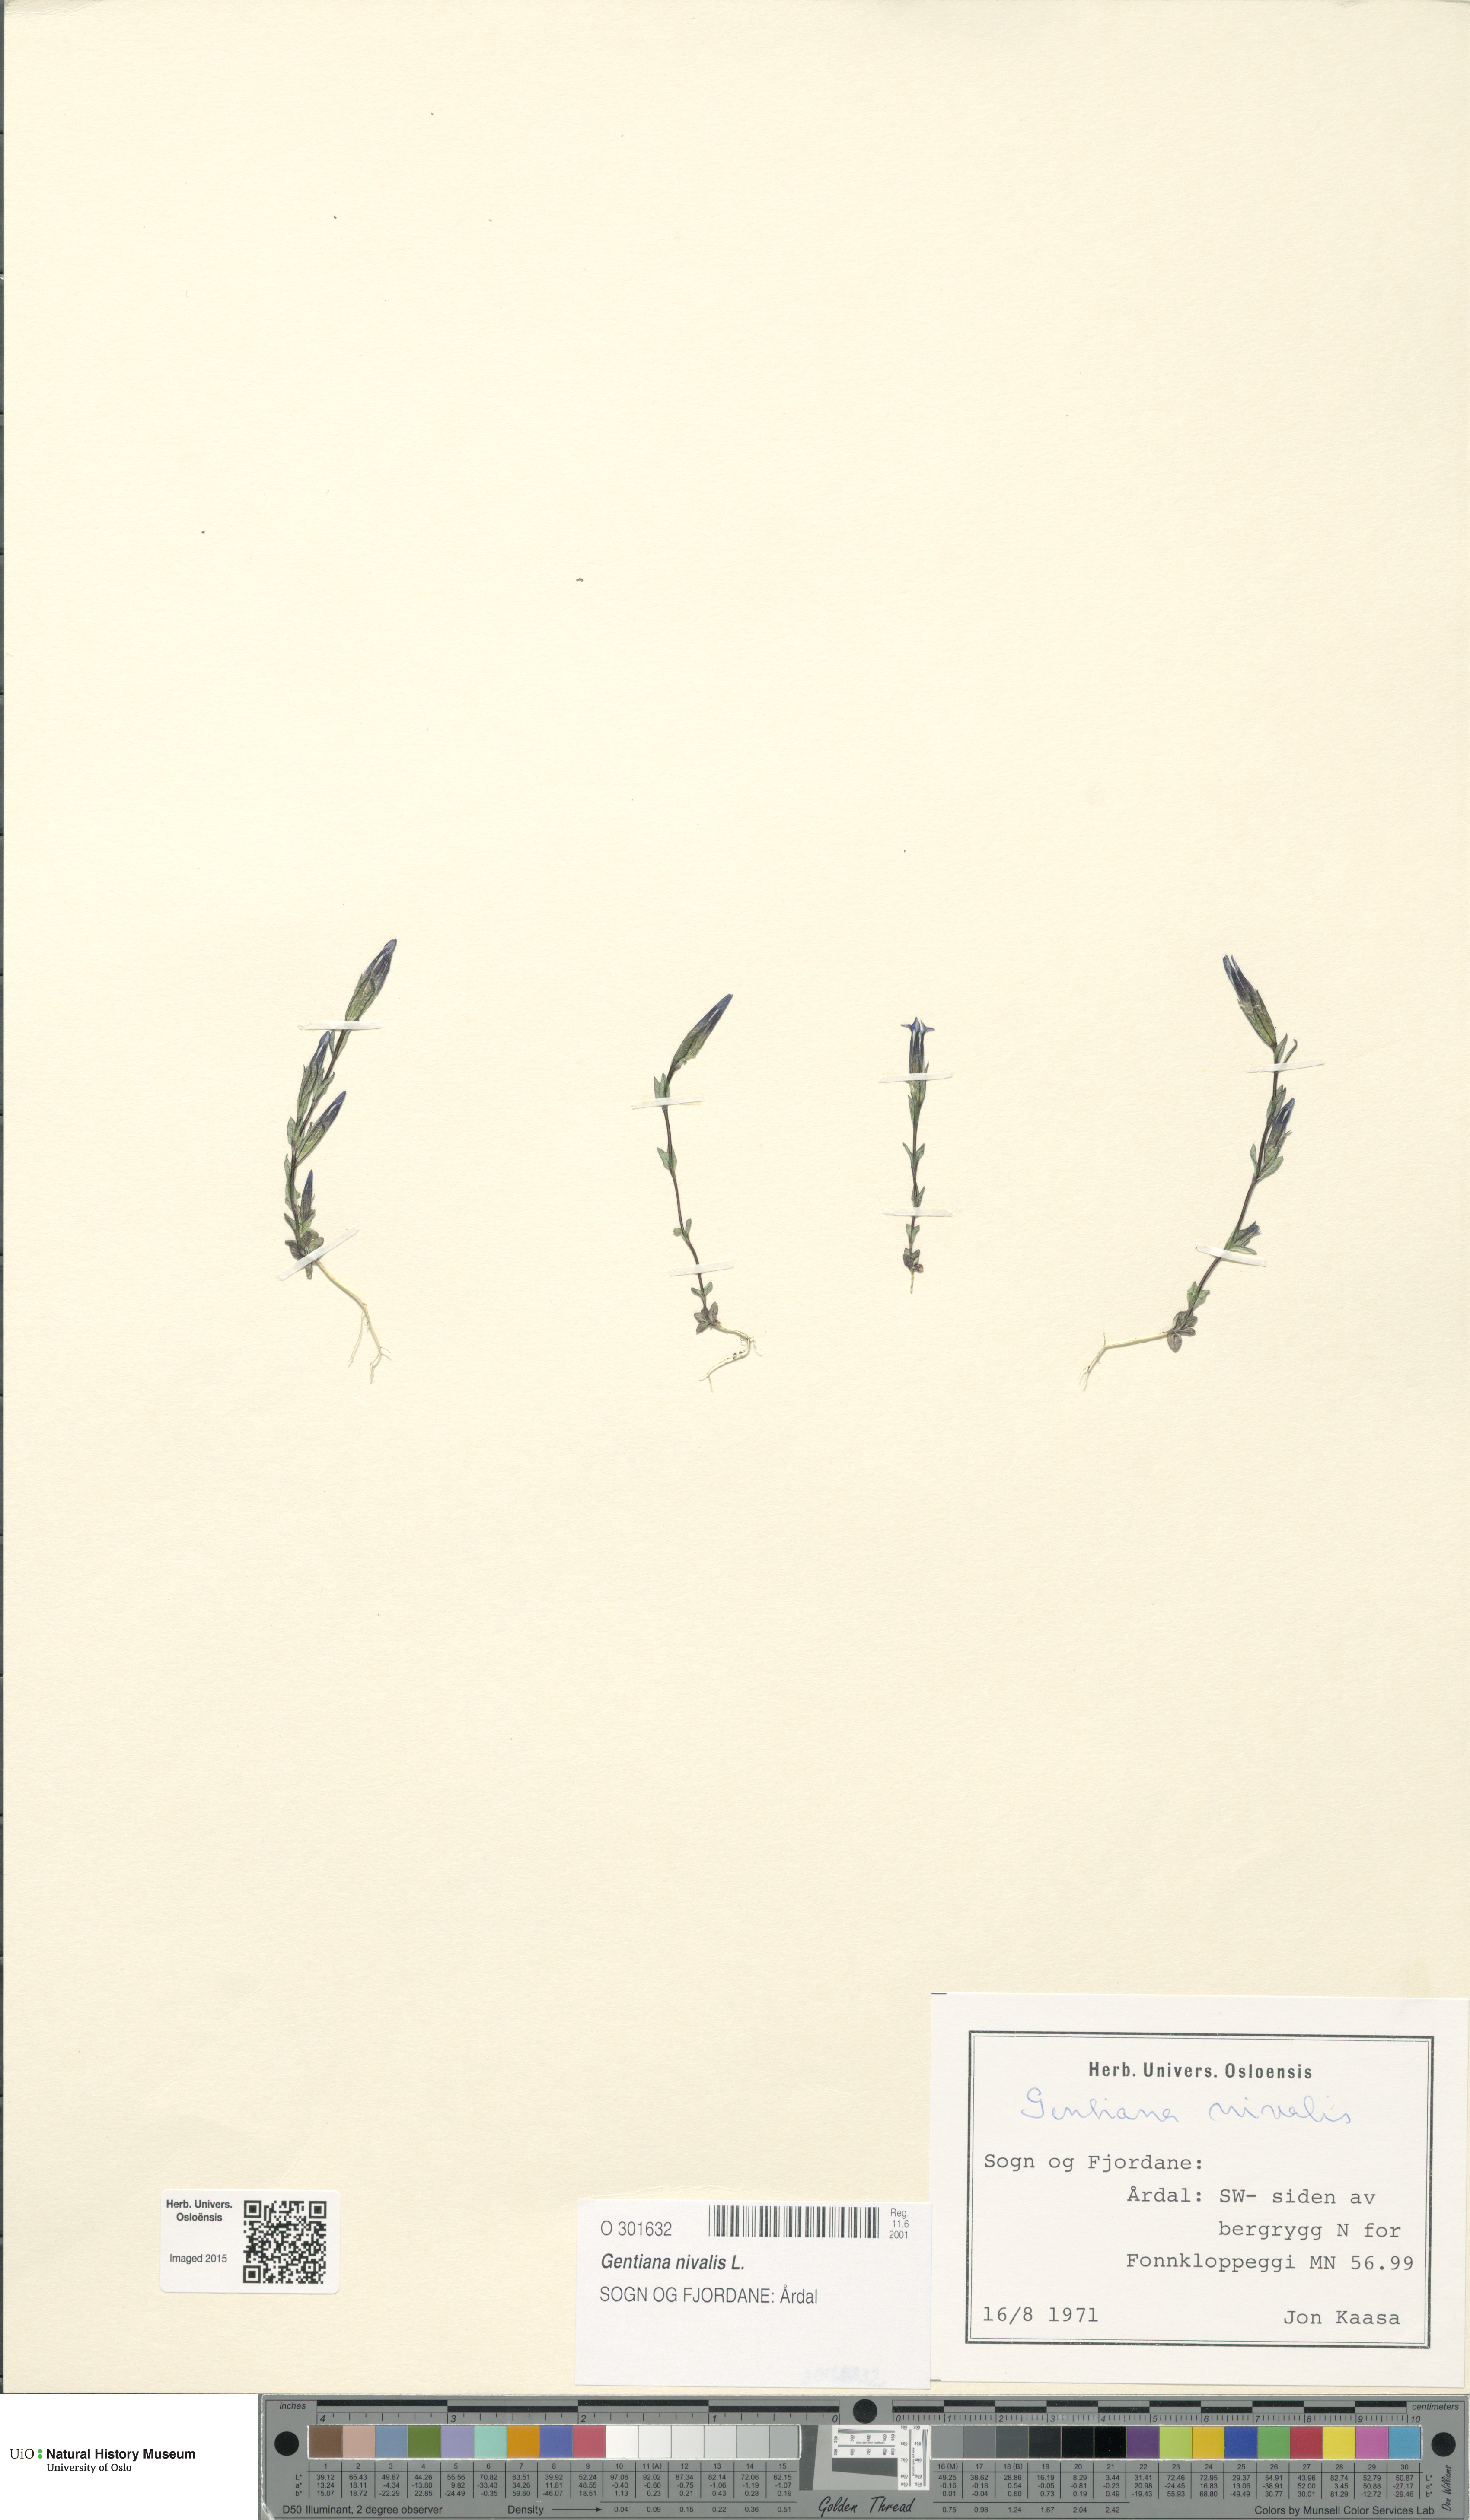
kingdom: Plantae
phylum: Tracheophyta
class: Magnoliopsida
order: Gentianales
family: Gentianaceae
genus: Gentiana
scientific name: Gentiana nivalis
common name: Alpine gentian
